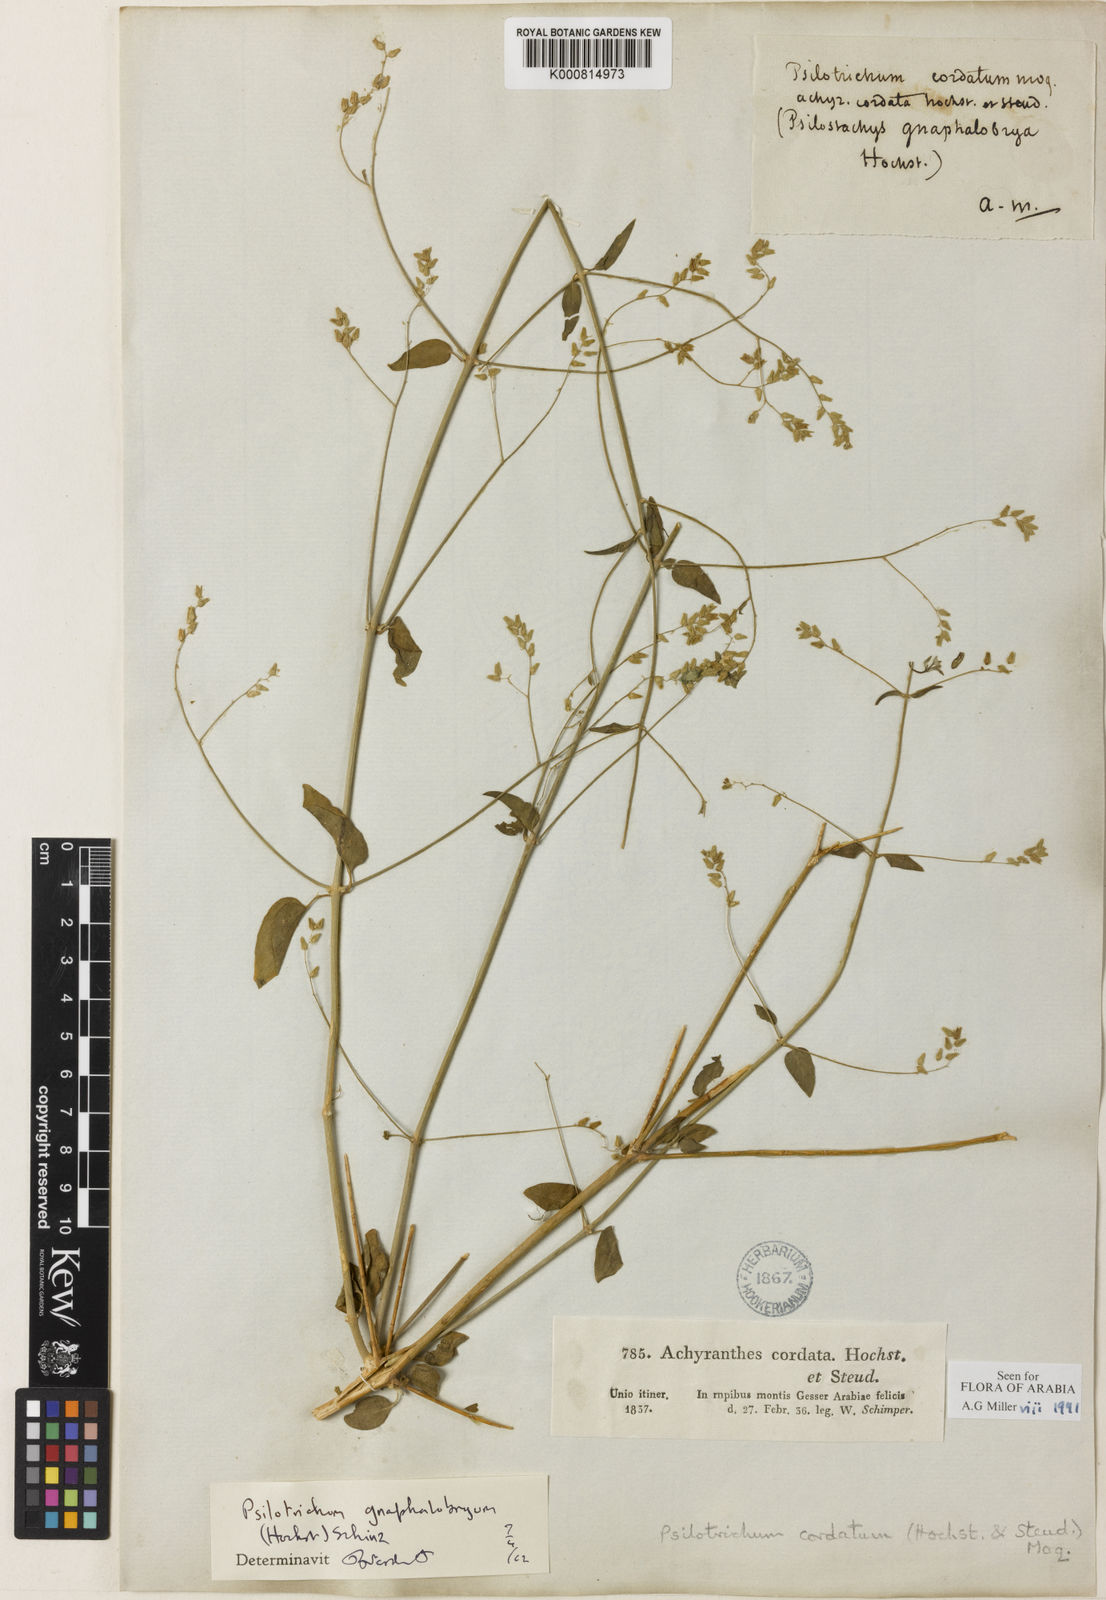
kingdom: Plantae
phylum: Tracheophyta
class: Magnoliopsida
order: Caryophyllales
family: Amaranthaceae
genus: Psilotrichum
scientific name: Psilotrichum gnaphalobryum
